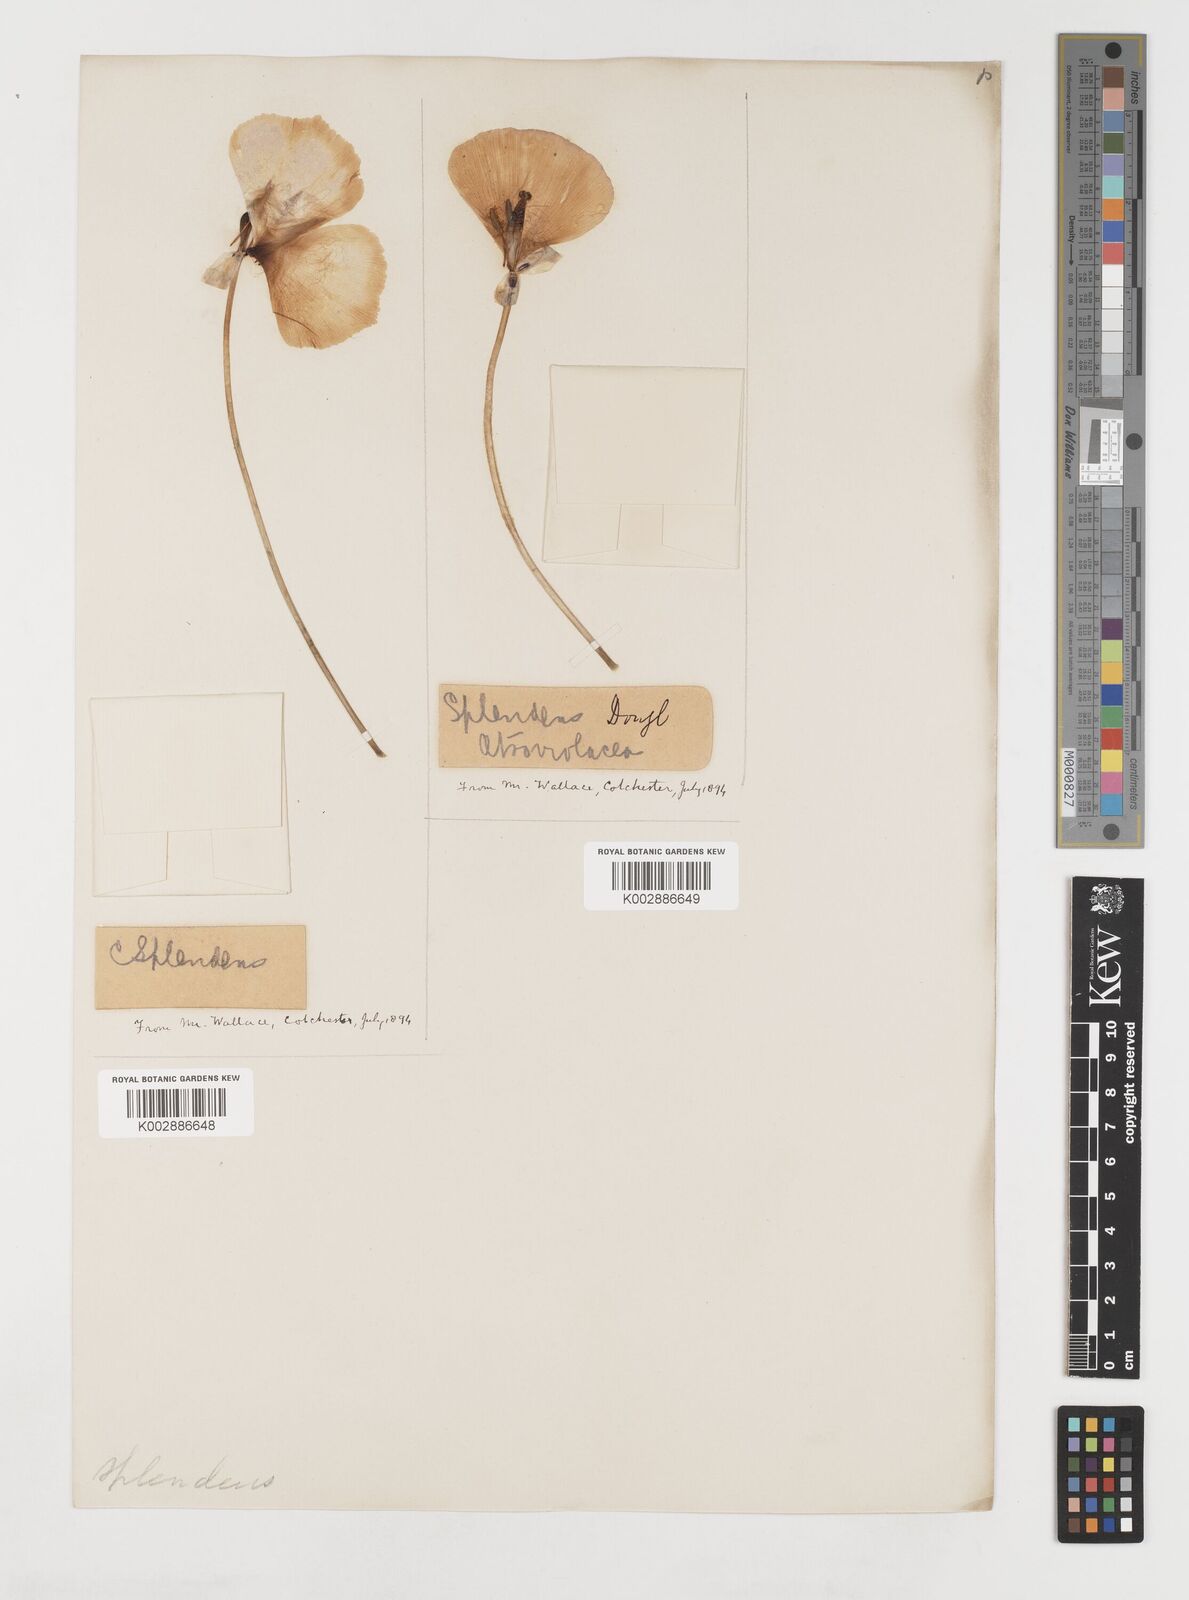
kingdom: Plantae
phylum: Tracheophyta
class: Liliopsida
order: Liliales
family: Liliaceae
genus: Calochortus
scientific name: Calochortus splendens
